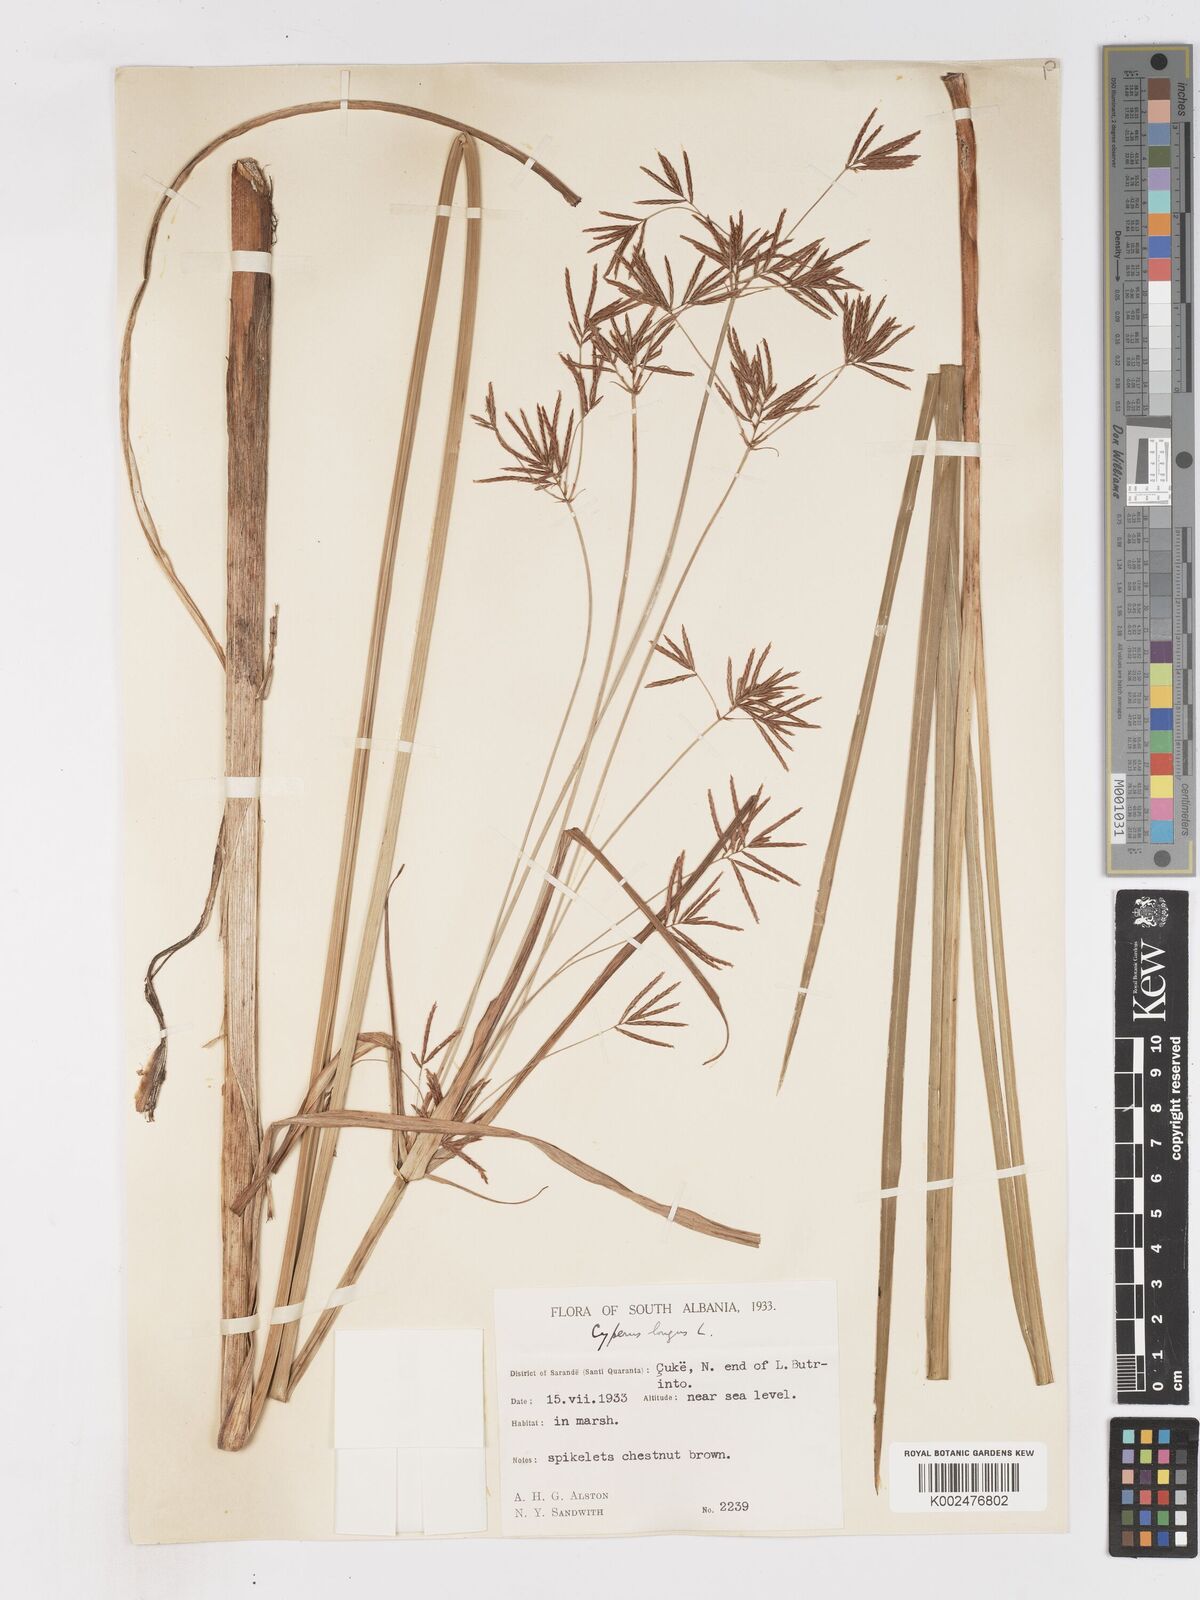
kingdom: Plantae
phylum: Tracheophyta
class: Liliopsida
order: Poales
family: Cyperaceae
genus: Cyperus
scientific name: Cyperus longus
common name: Galingale
